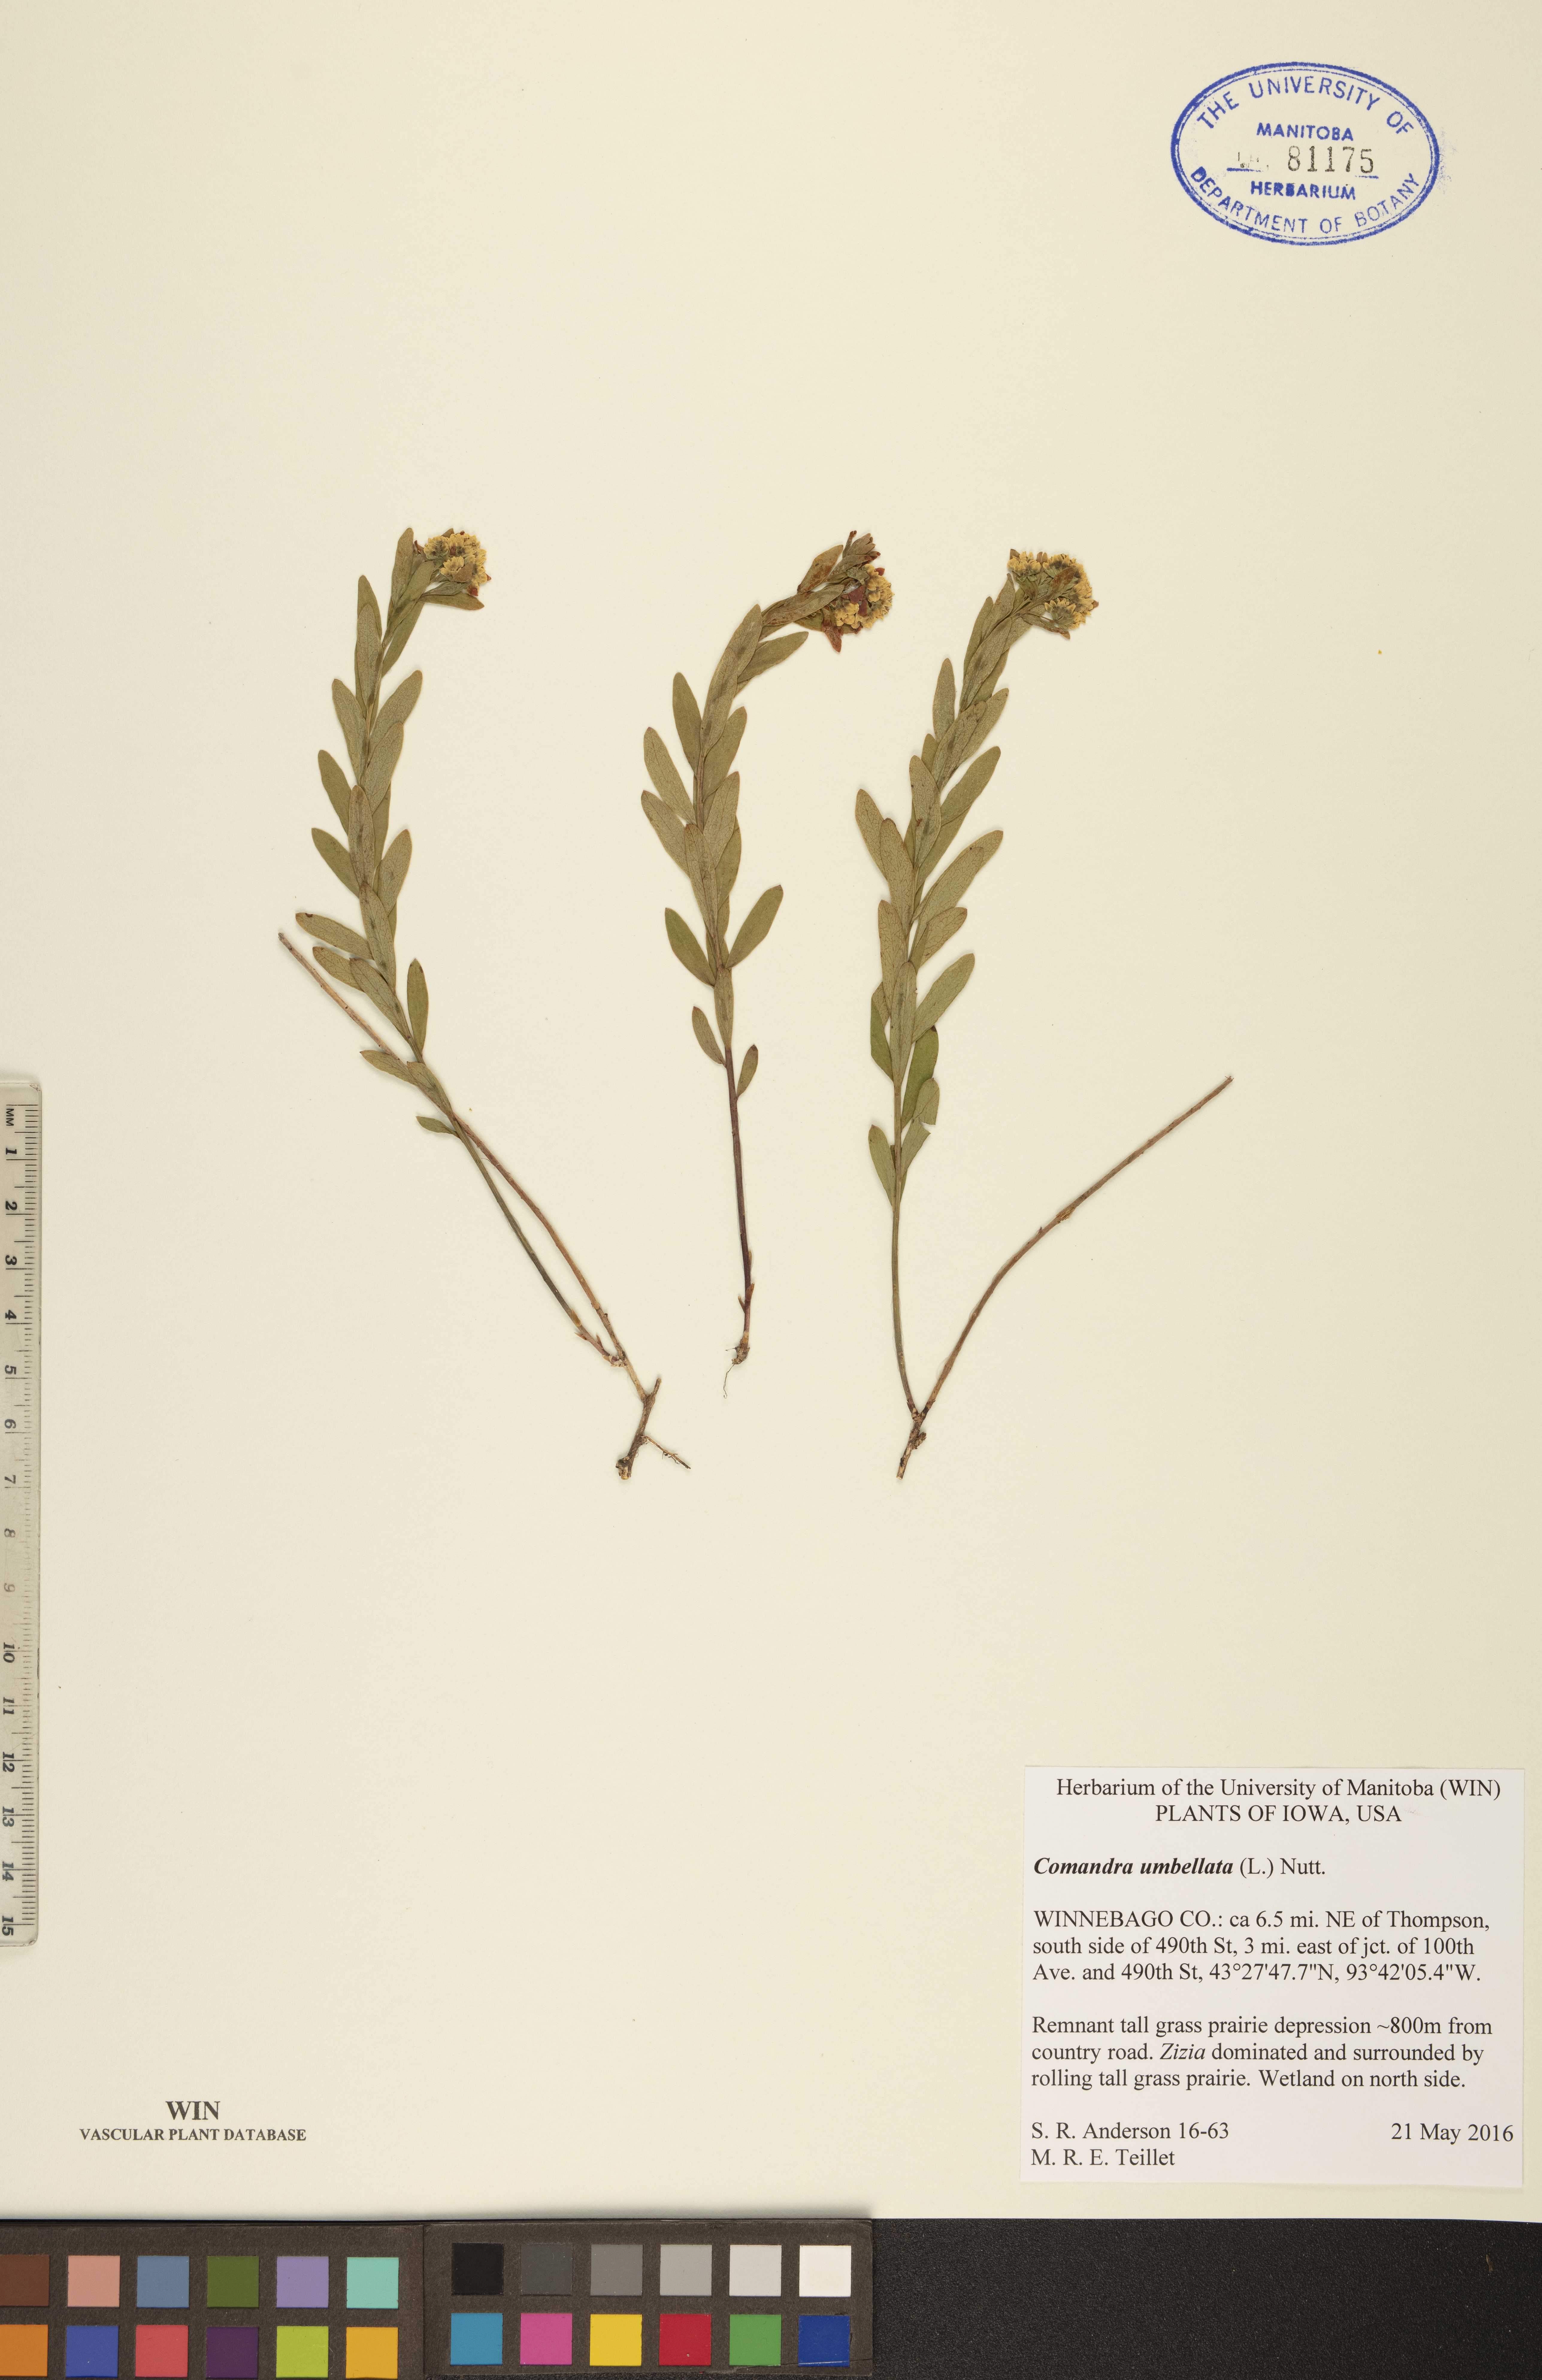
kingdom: Plantae
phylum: Tracheophyta
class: Magnoliopsida
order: Santalales
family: Comandraceae
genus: Comandra
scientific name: Comandra umbellata
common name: Bastard toadflax
